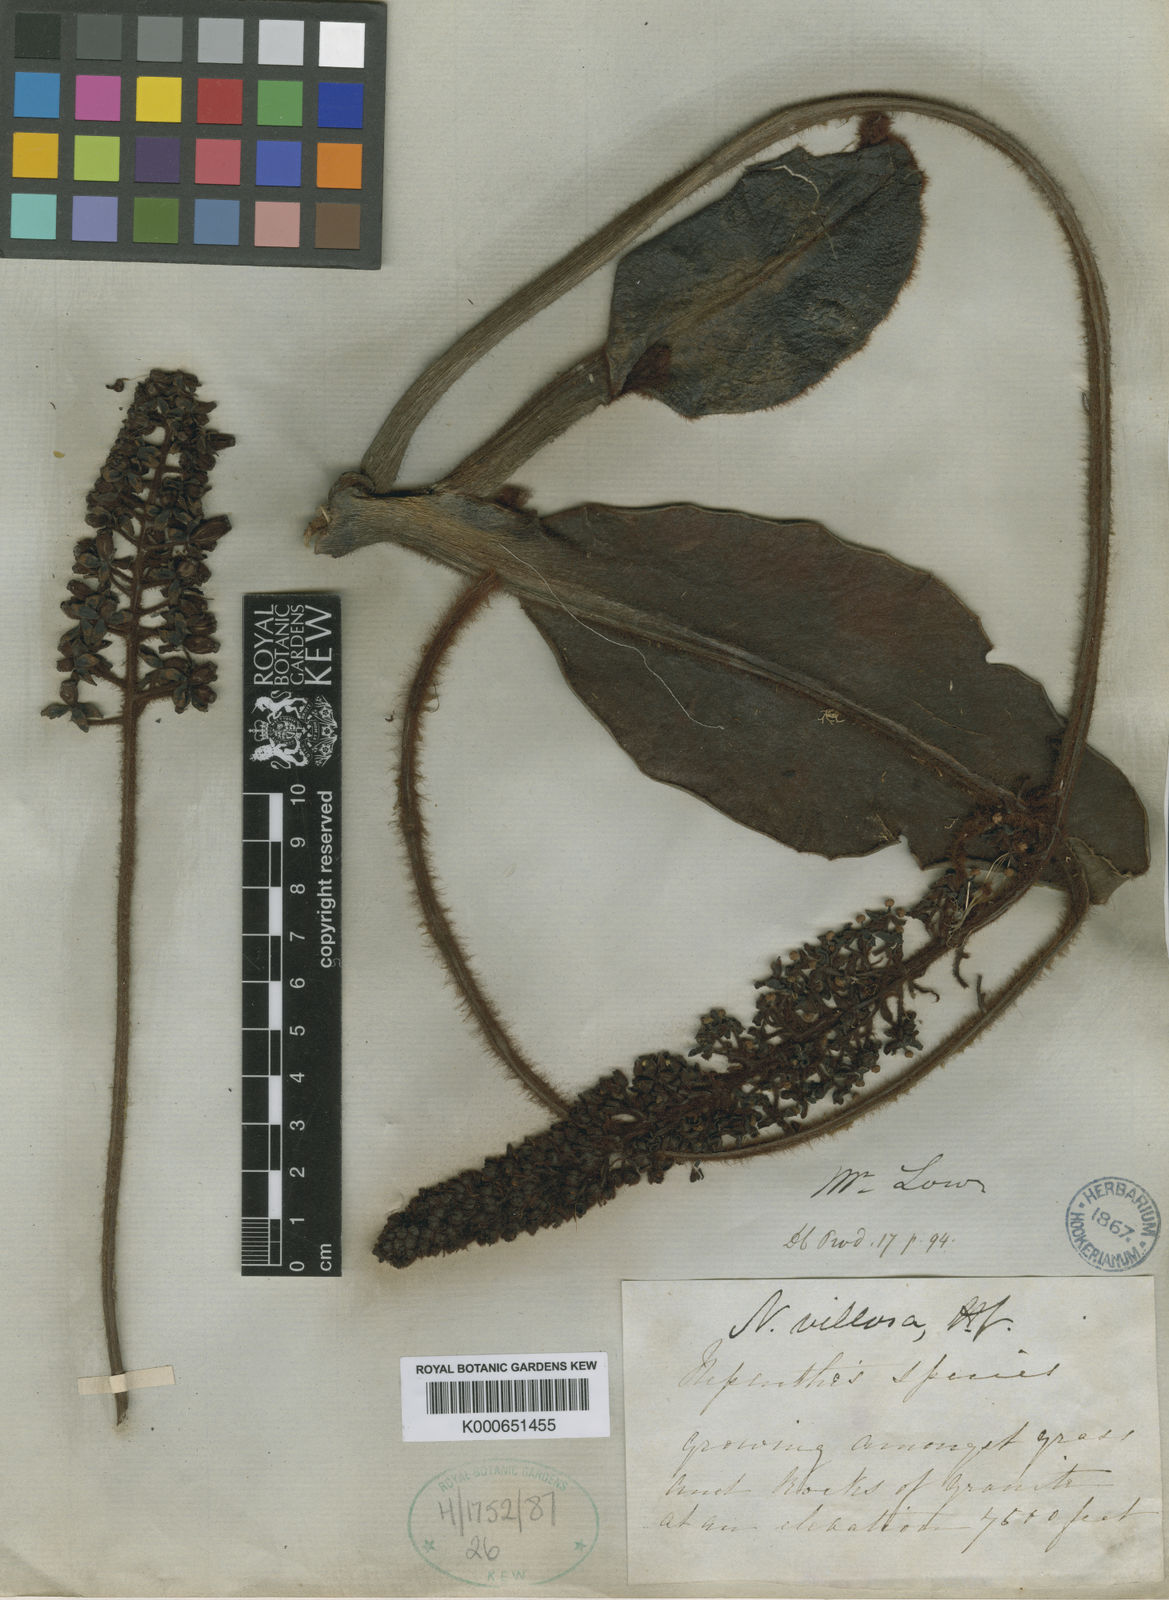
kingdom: Plantae
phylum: Tracheophyta
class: Magnoliopsida
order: Caryophyllales
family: Nepenthaceae
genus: Nepenthes
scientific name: Nepenthes villosa
